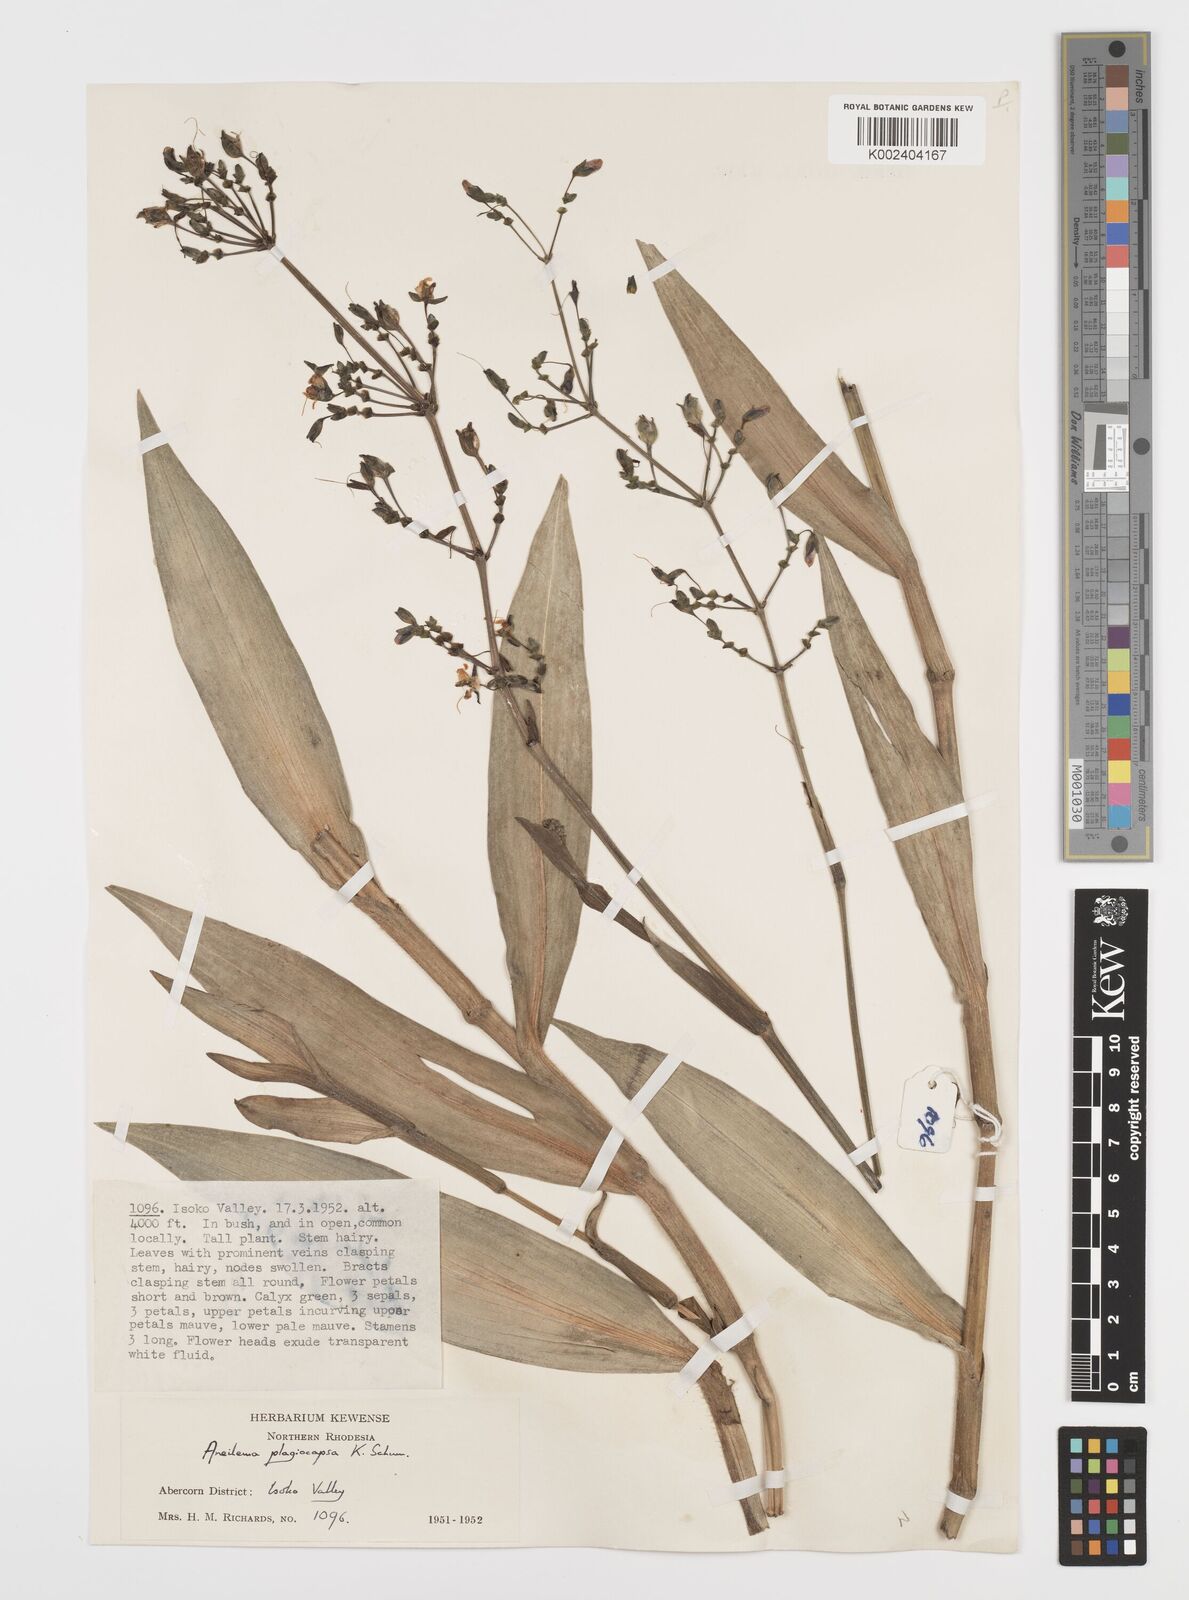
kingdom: Plantae
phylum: Tracheophyta
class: Liliopsida
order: Commelinales
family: Commelinaceae
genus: Aneilema
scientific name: Aneilema plagiocapsa
